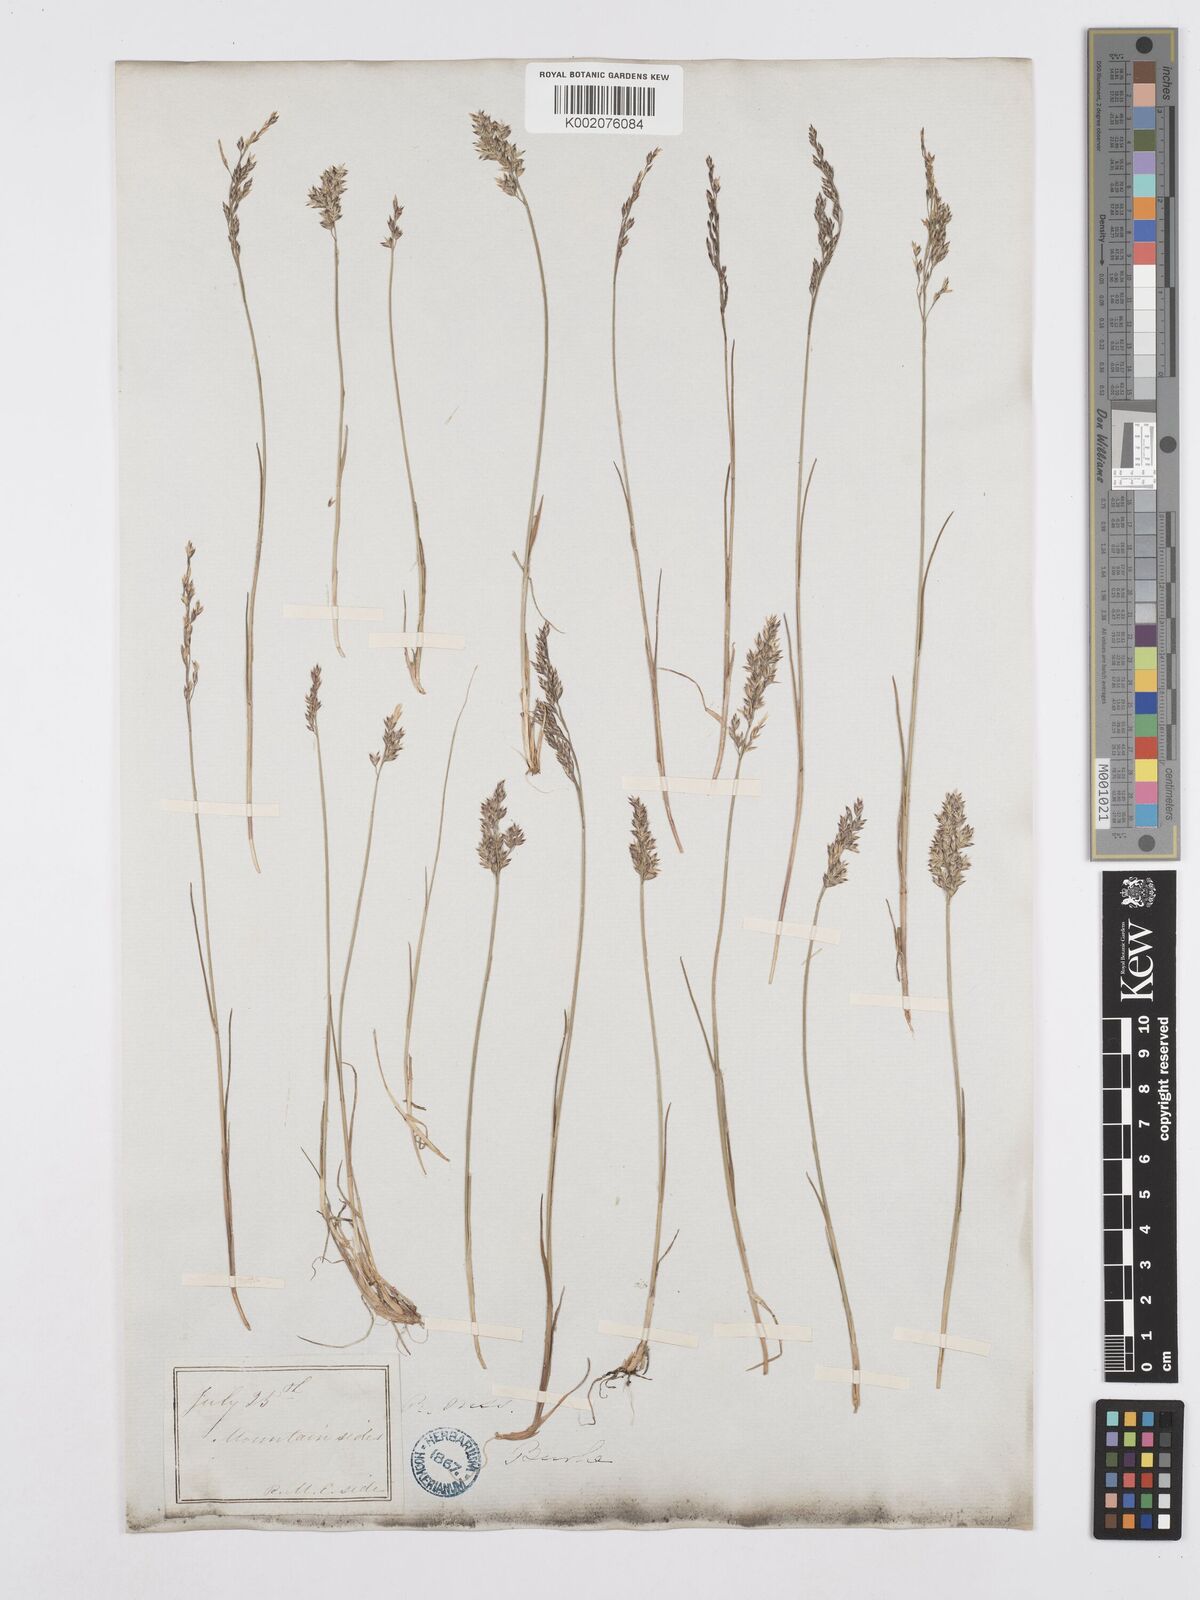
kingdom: Plantae
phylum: Tracheophyta
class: Liliopsida
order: Poales
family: Poaceae
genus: Poa
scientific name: Poa alpina
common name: Alpine bluegrass
